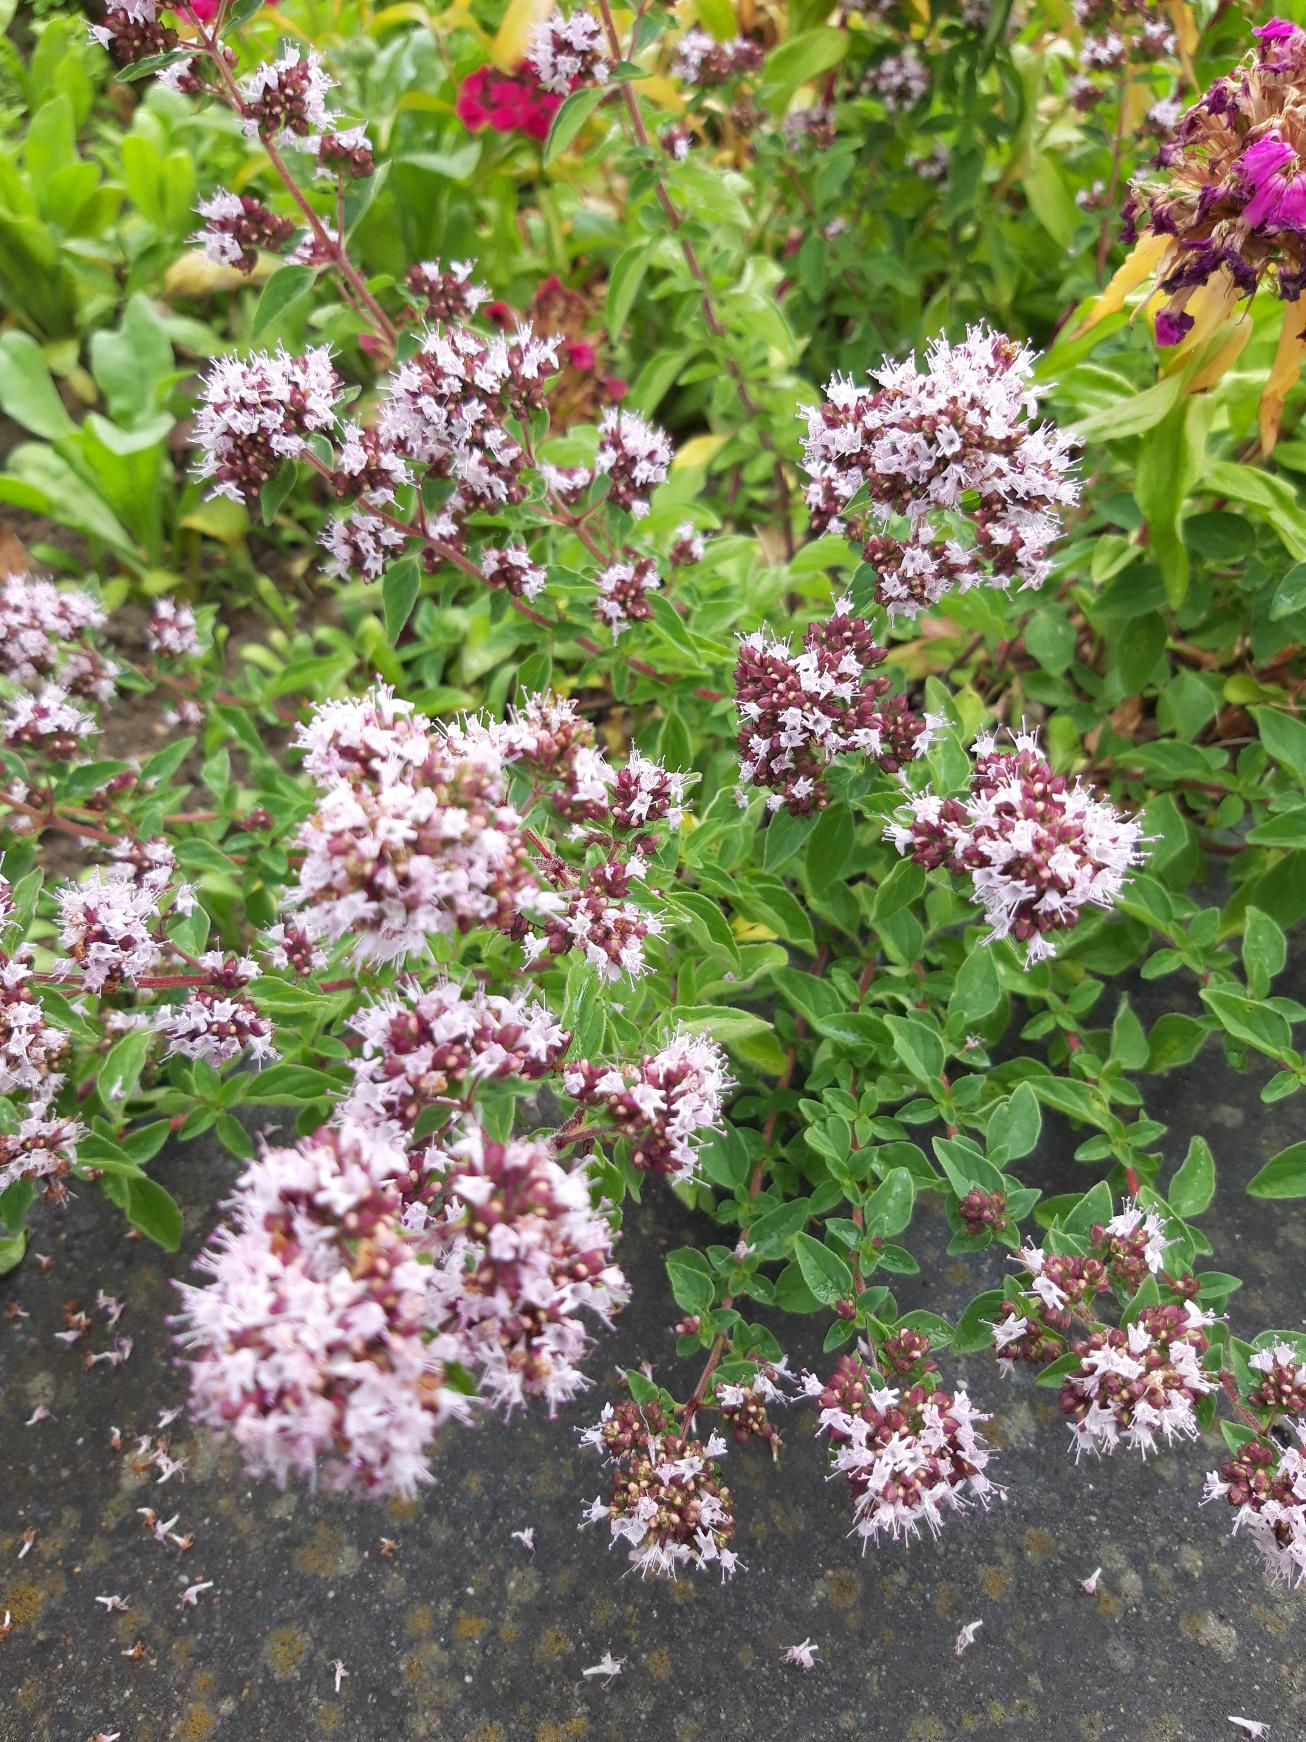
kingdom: Plantae
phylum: Tracheophyta
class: Magnoliopsida
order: Lamiales
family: Lamiaceae
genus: Origanum
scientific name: Origanum vulgare
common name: Merian
